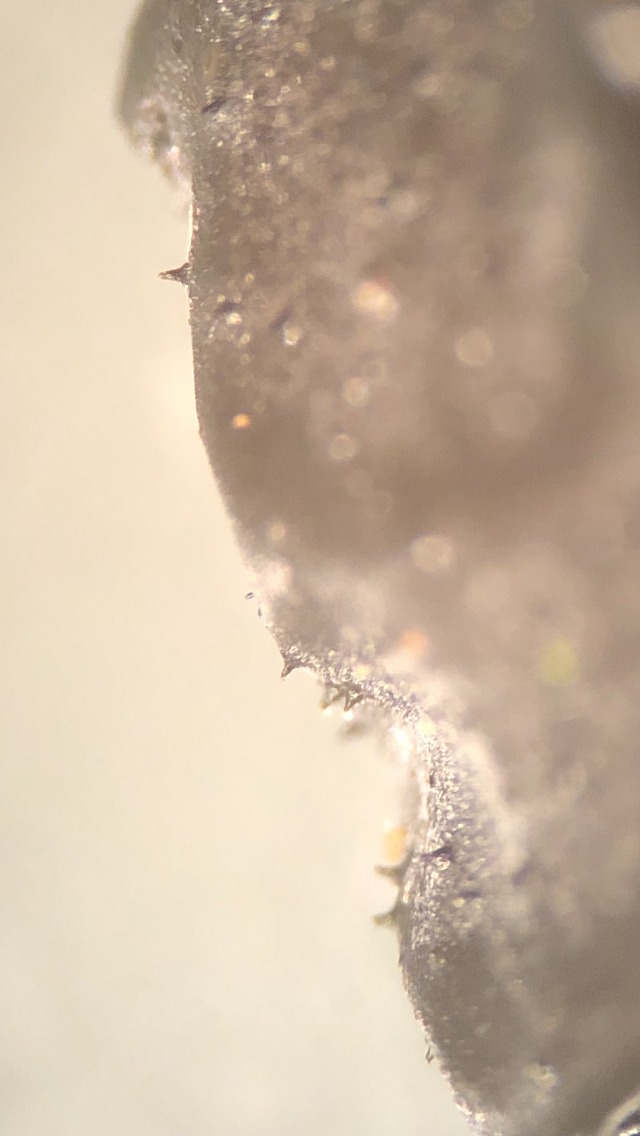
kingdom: Fungi
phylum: Basidiomycota
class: Agaricomycetes
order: Auriculariales
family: Auriculariaceae
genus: Exidia
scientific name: Exidia nigricans
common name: almindelig bævretop
